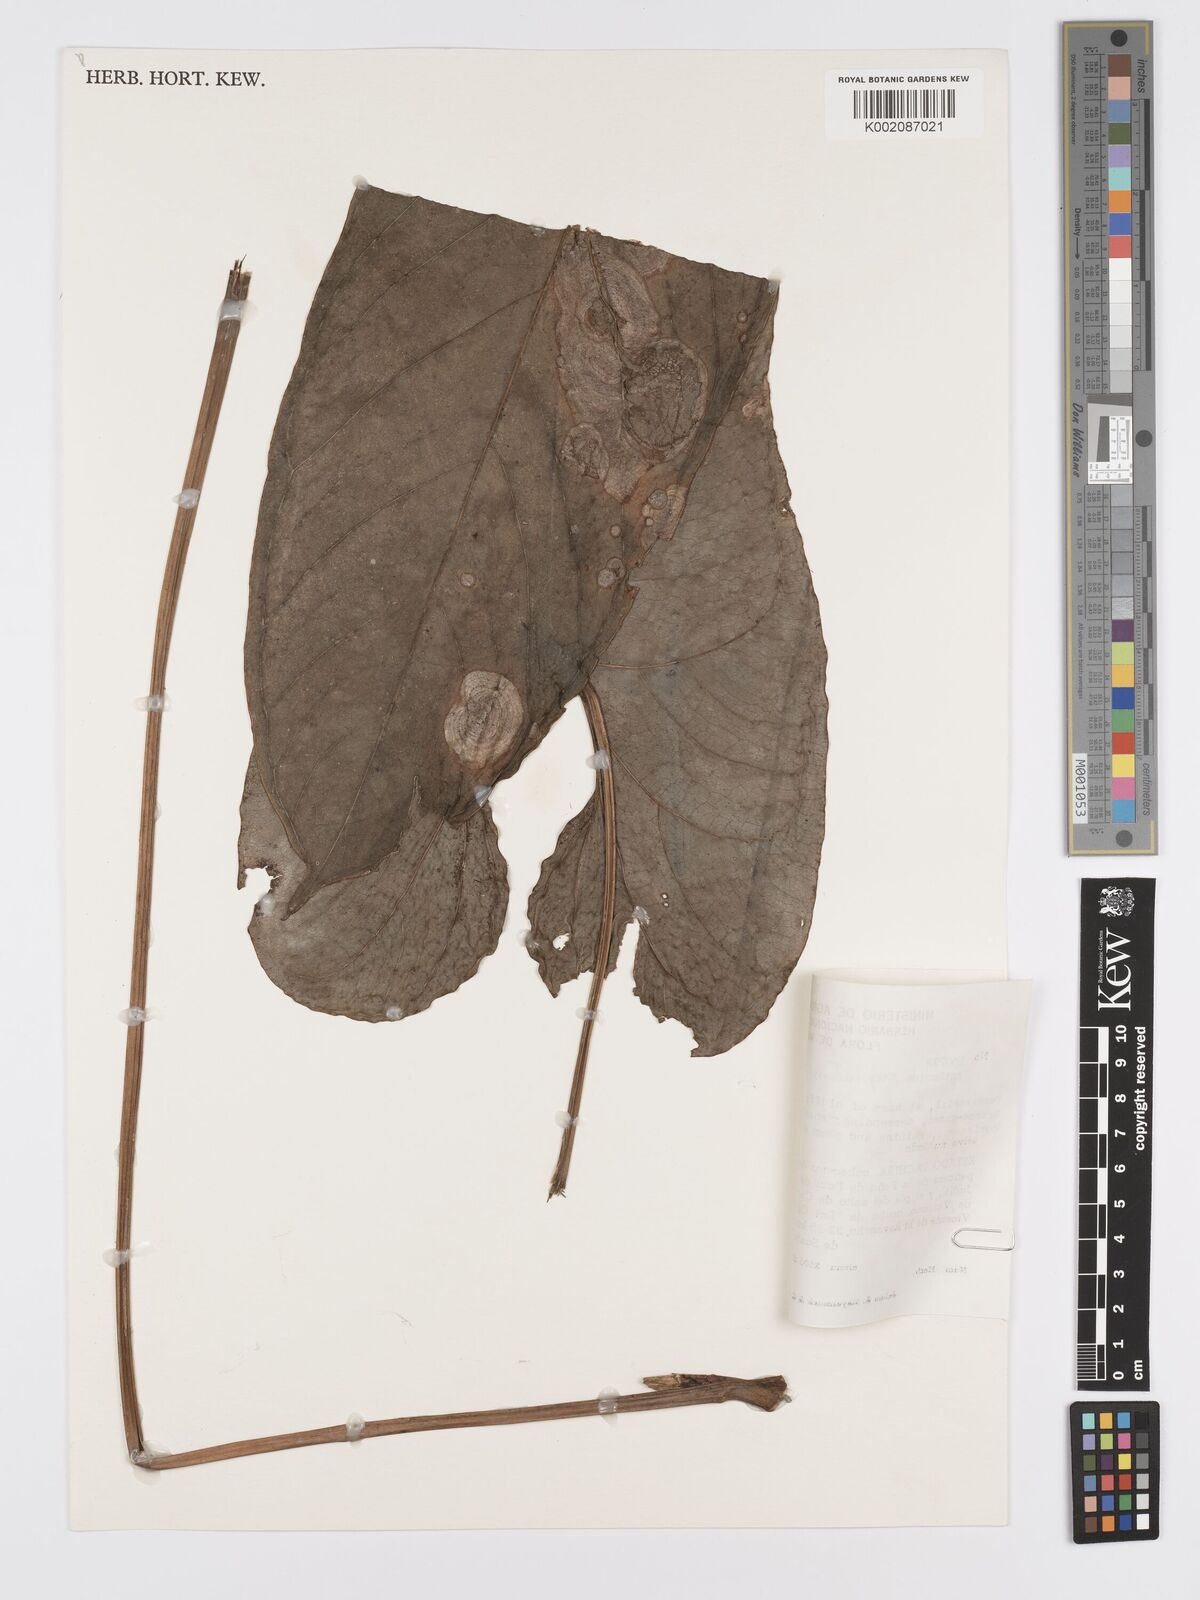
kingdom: Plantae
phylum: Tracheophyta
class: Liliopsida
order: Alismatales
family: Araceae
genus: Anthurium
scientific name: Anthurium signatum
